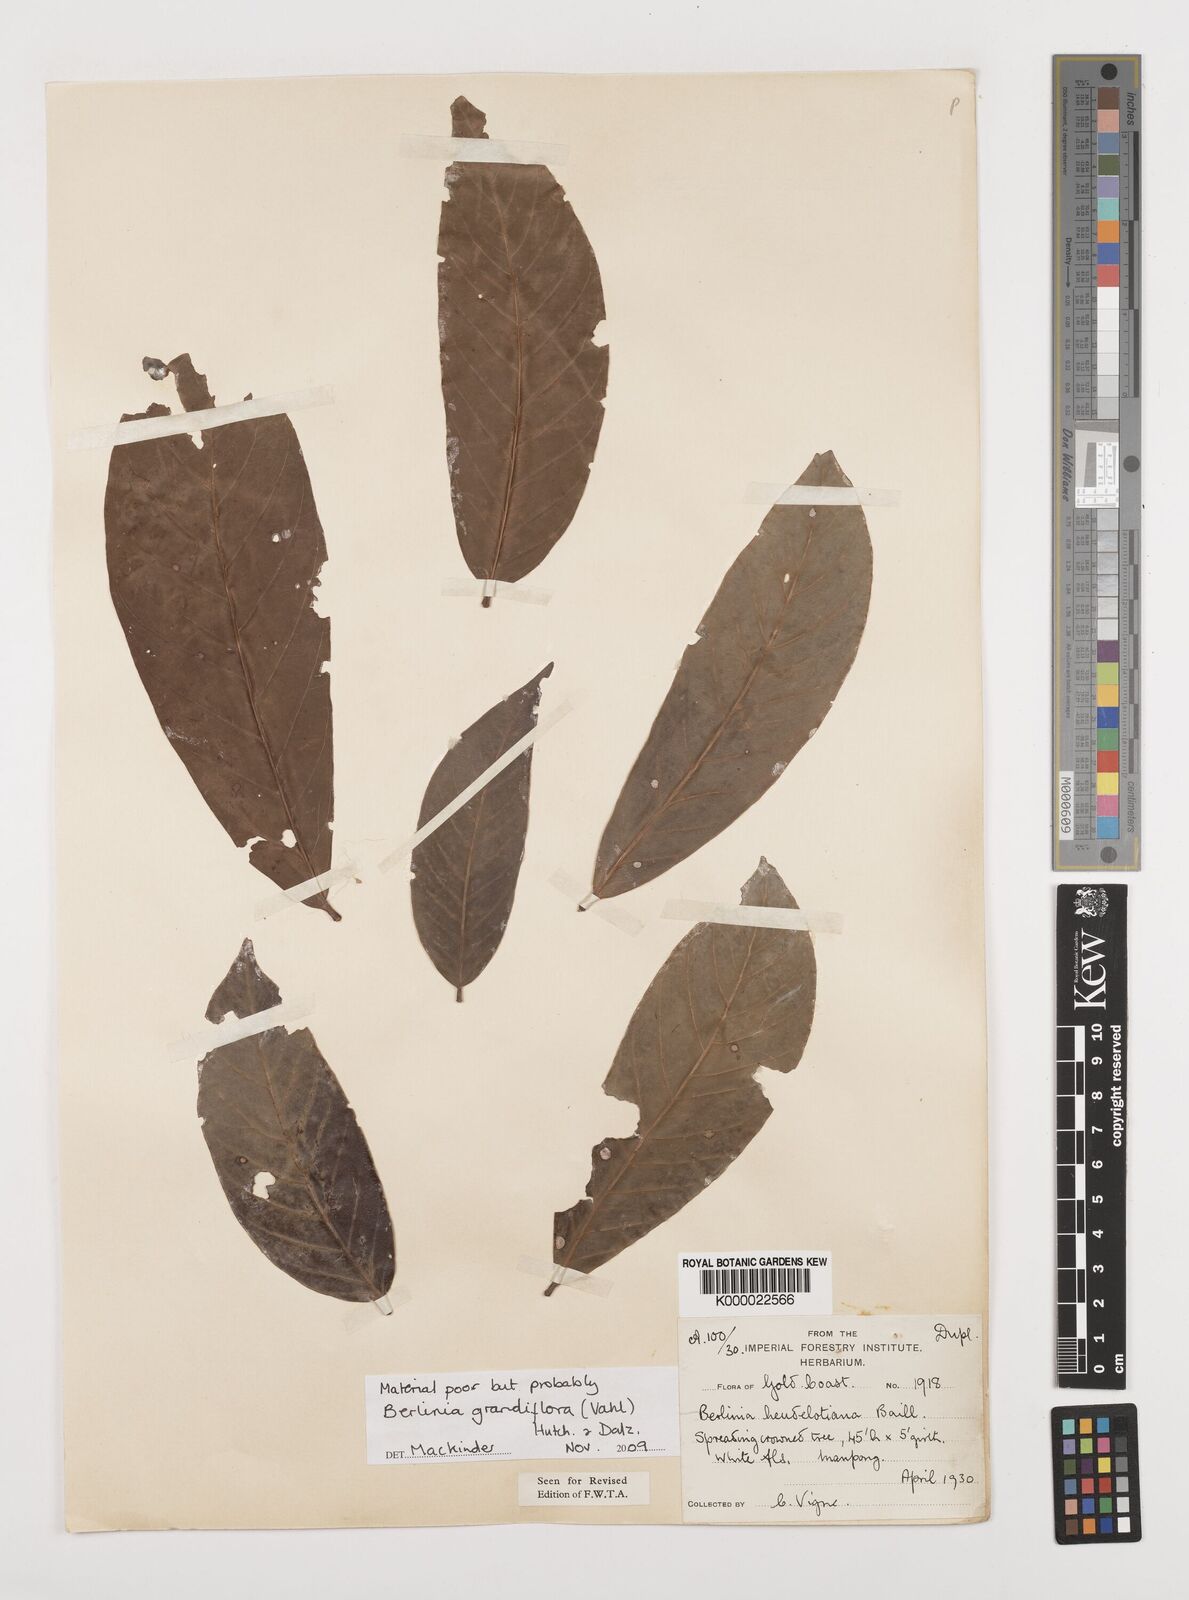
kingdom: Plantae
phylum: Tracheophyta
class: Magnoliopsida
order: Fabales
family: Fabaceae
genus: Berlinia
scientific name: Berlinia grandiflora
